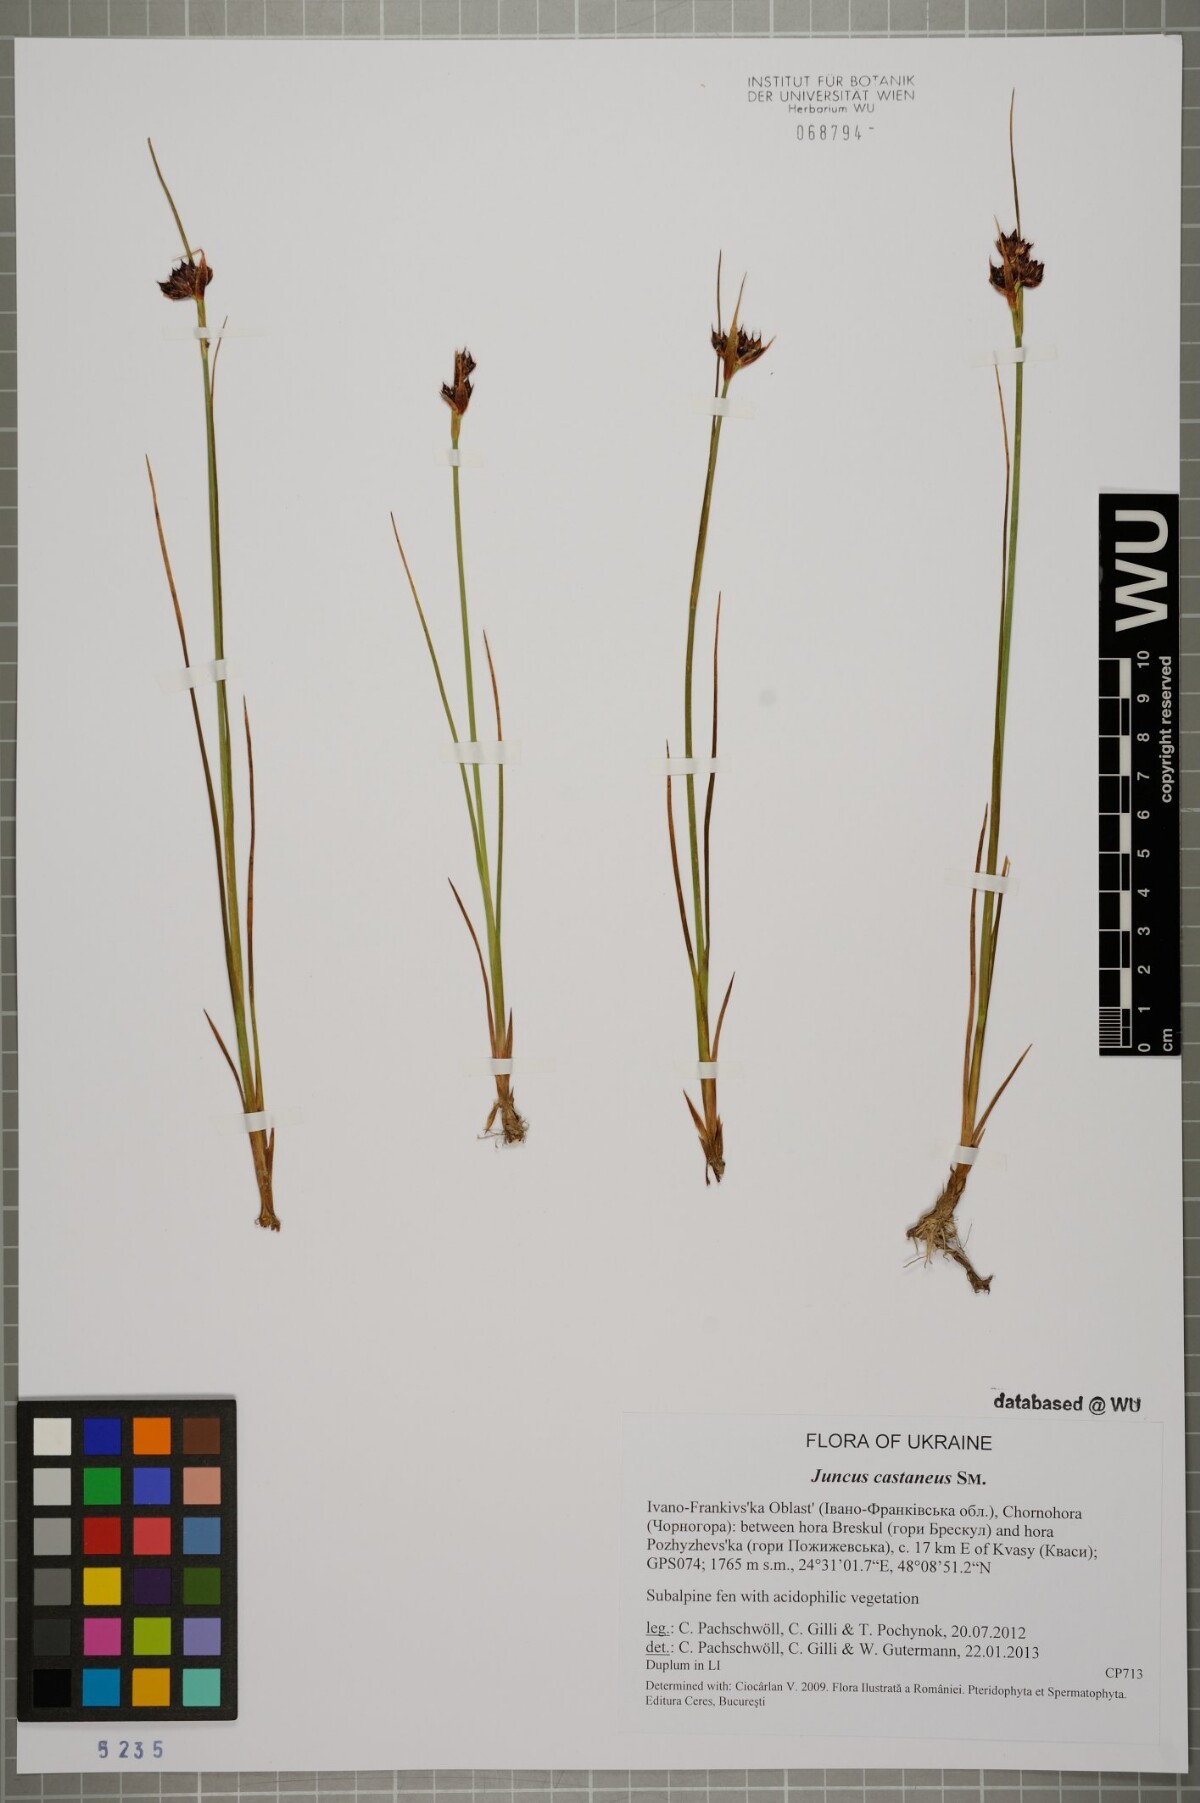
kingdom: Plantae
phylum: Tracheophyta
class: Liliopsida
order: Poales
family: Juncaceae
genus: Juncus
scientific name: Juncus castaneus
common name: Chestnut rush
